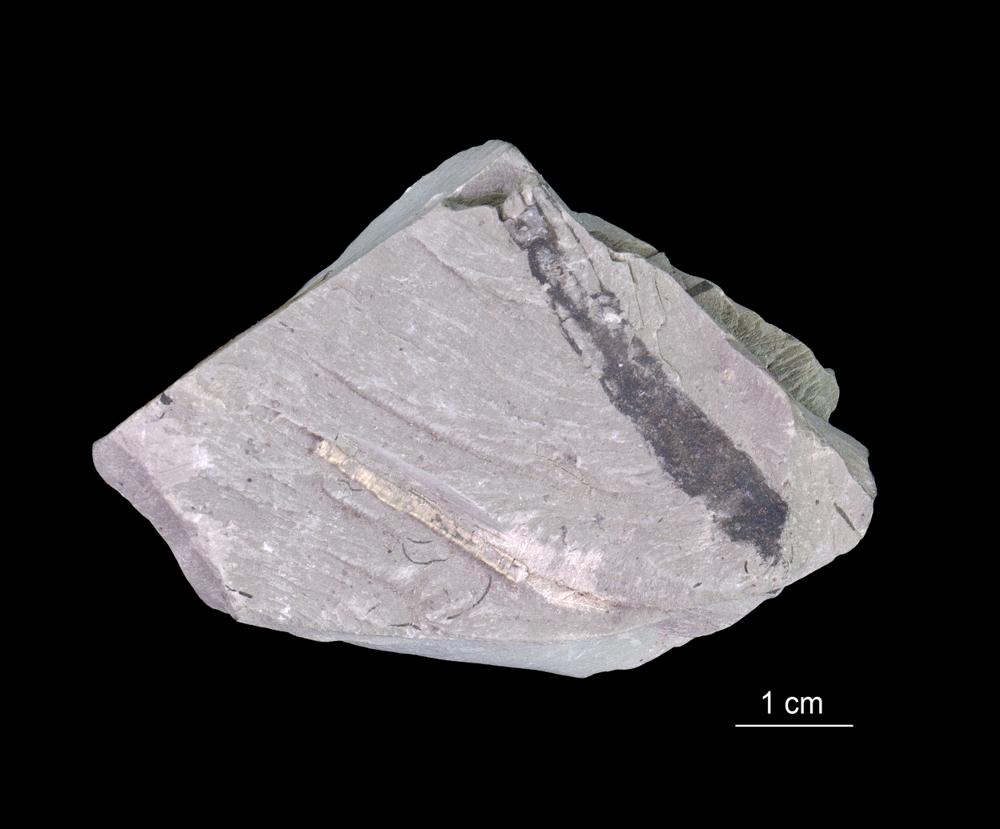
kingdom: Chromista
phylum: Foraminifera
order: Astrorhizida
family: Hyperamminidae
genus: Platysolenites
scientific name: Platysolenites antiquissimus
